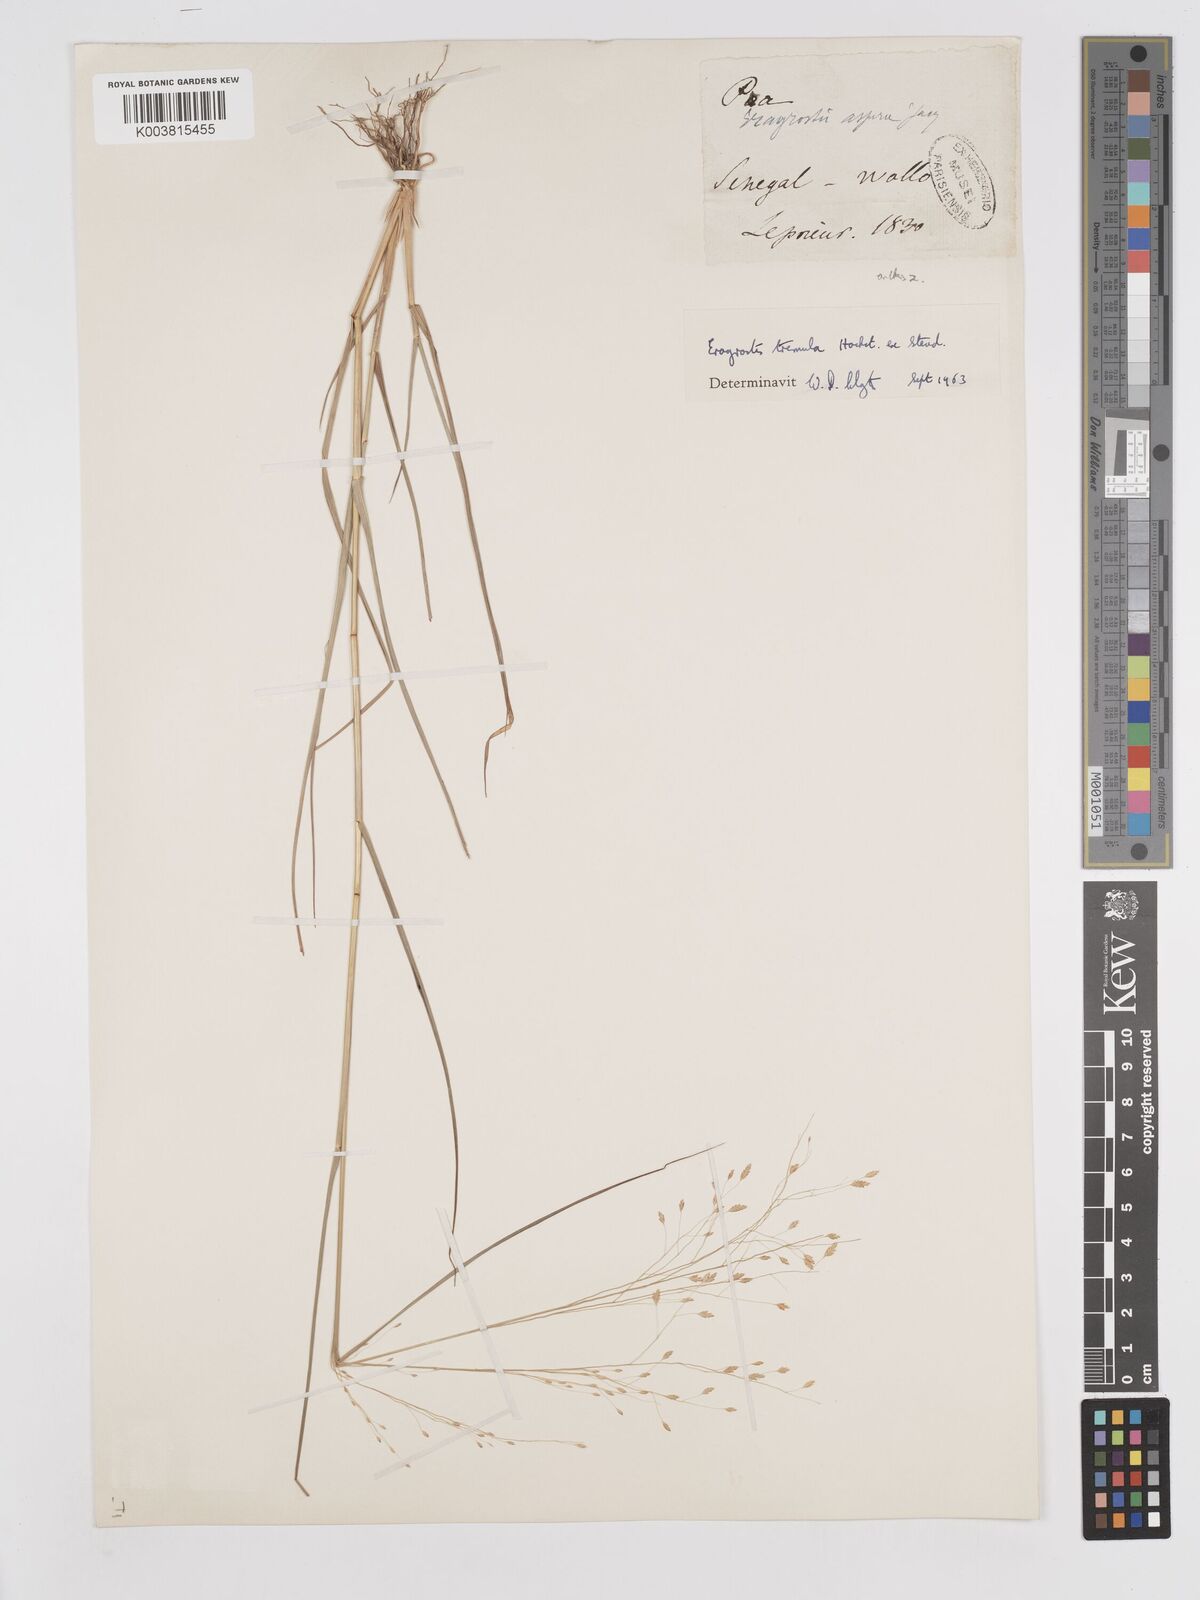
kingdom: Plantae
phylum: Tracheophyta
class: Liliopsida
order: Poales
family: Poaceae
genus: Eragrostis
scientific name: Eragrostis tremula
